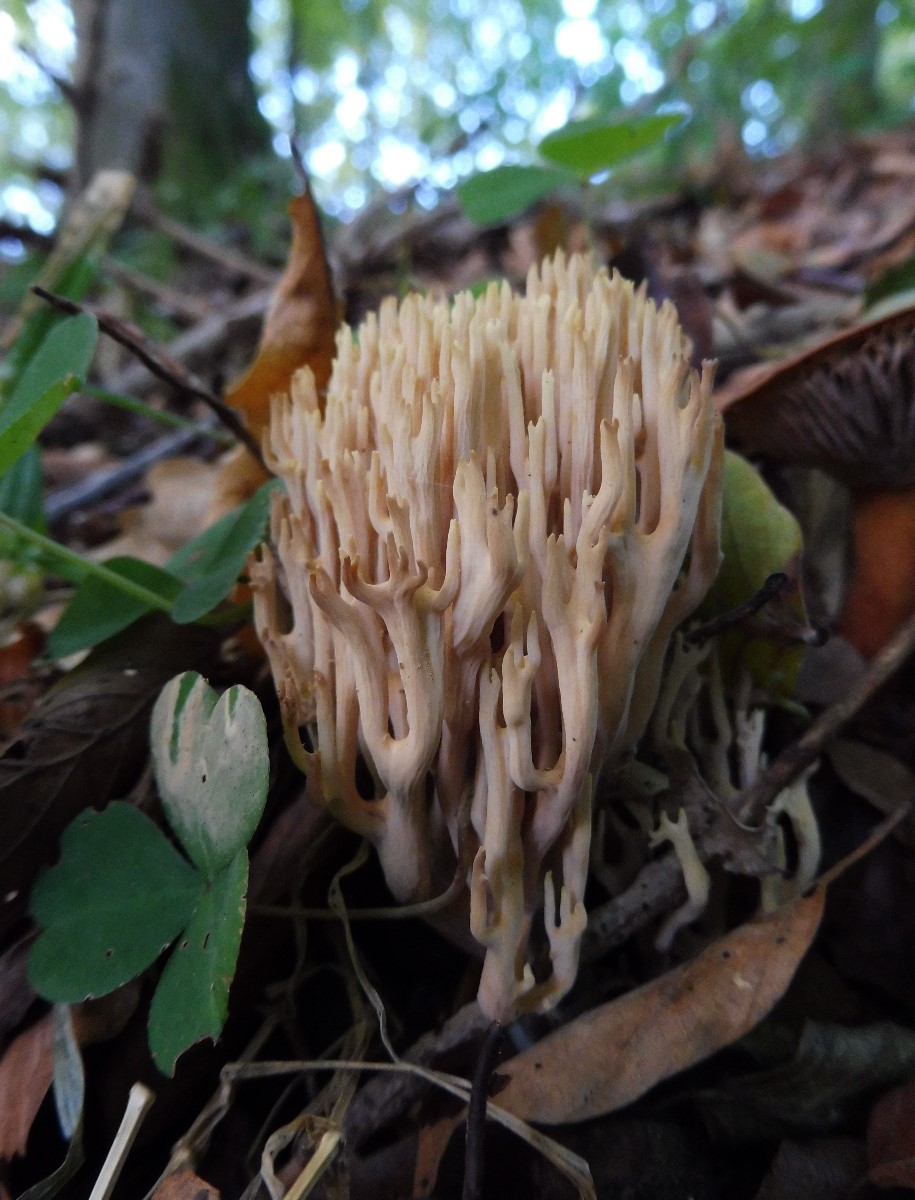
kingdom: Fungi
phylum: Basidiomycota
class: Agaricomycetes
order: Gomphales
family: Gomphaceae
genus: Ramaria
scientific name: Ramaria stricta
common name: rank koralsvamp
